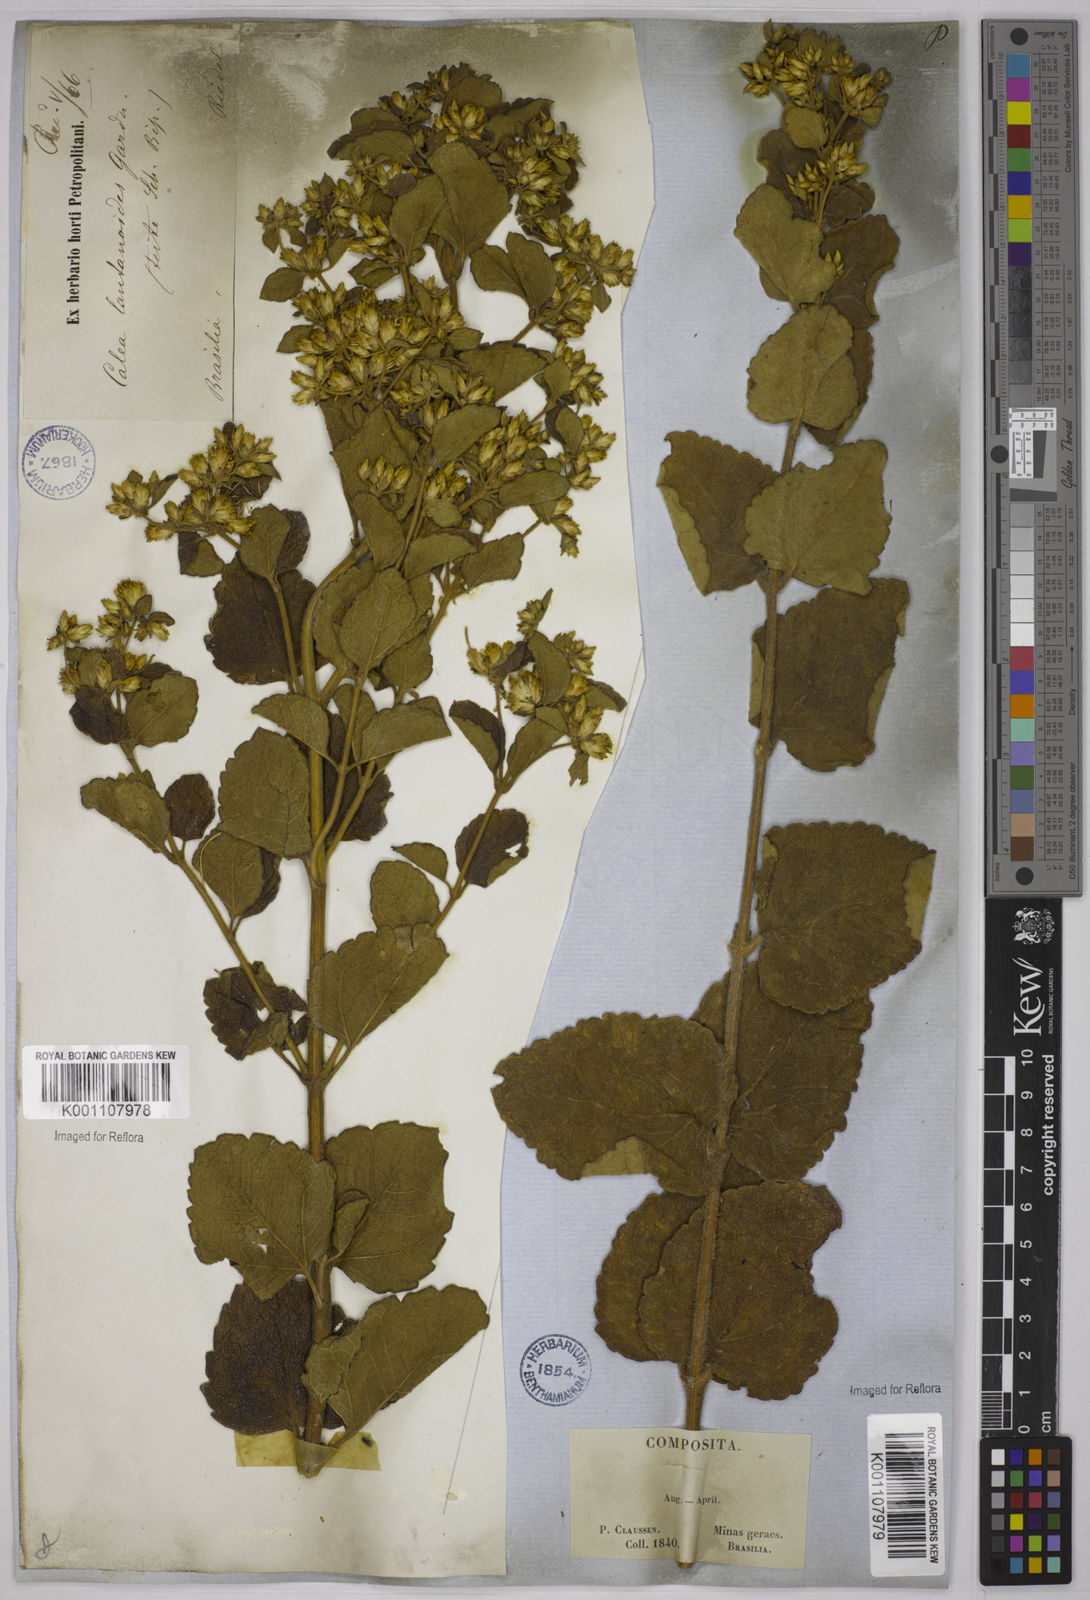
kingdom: Plantae
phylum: Tracheophyta
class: Magnoliopsida
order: Asterales
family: Asteraceae
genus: Calea
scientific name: Calea lantanoides
